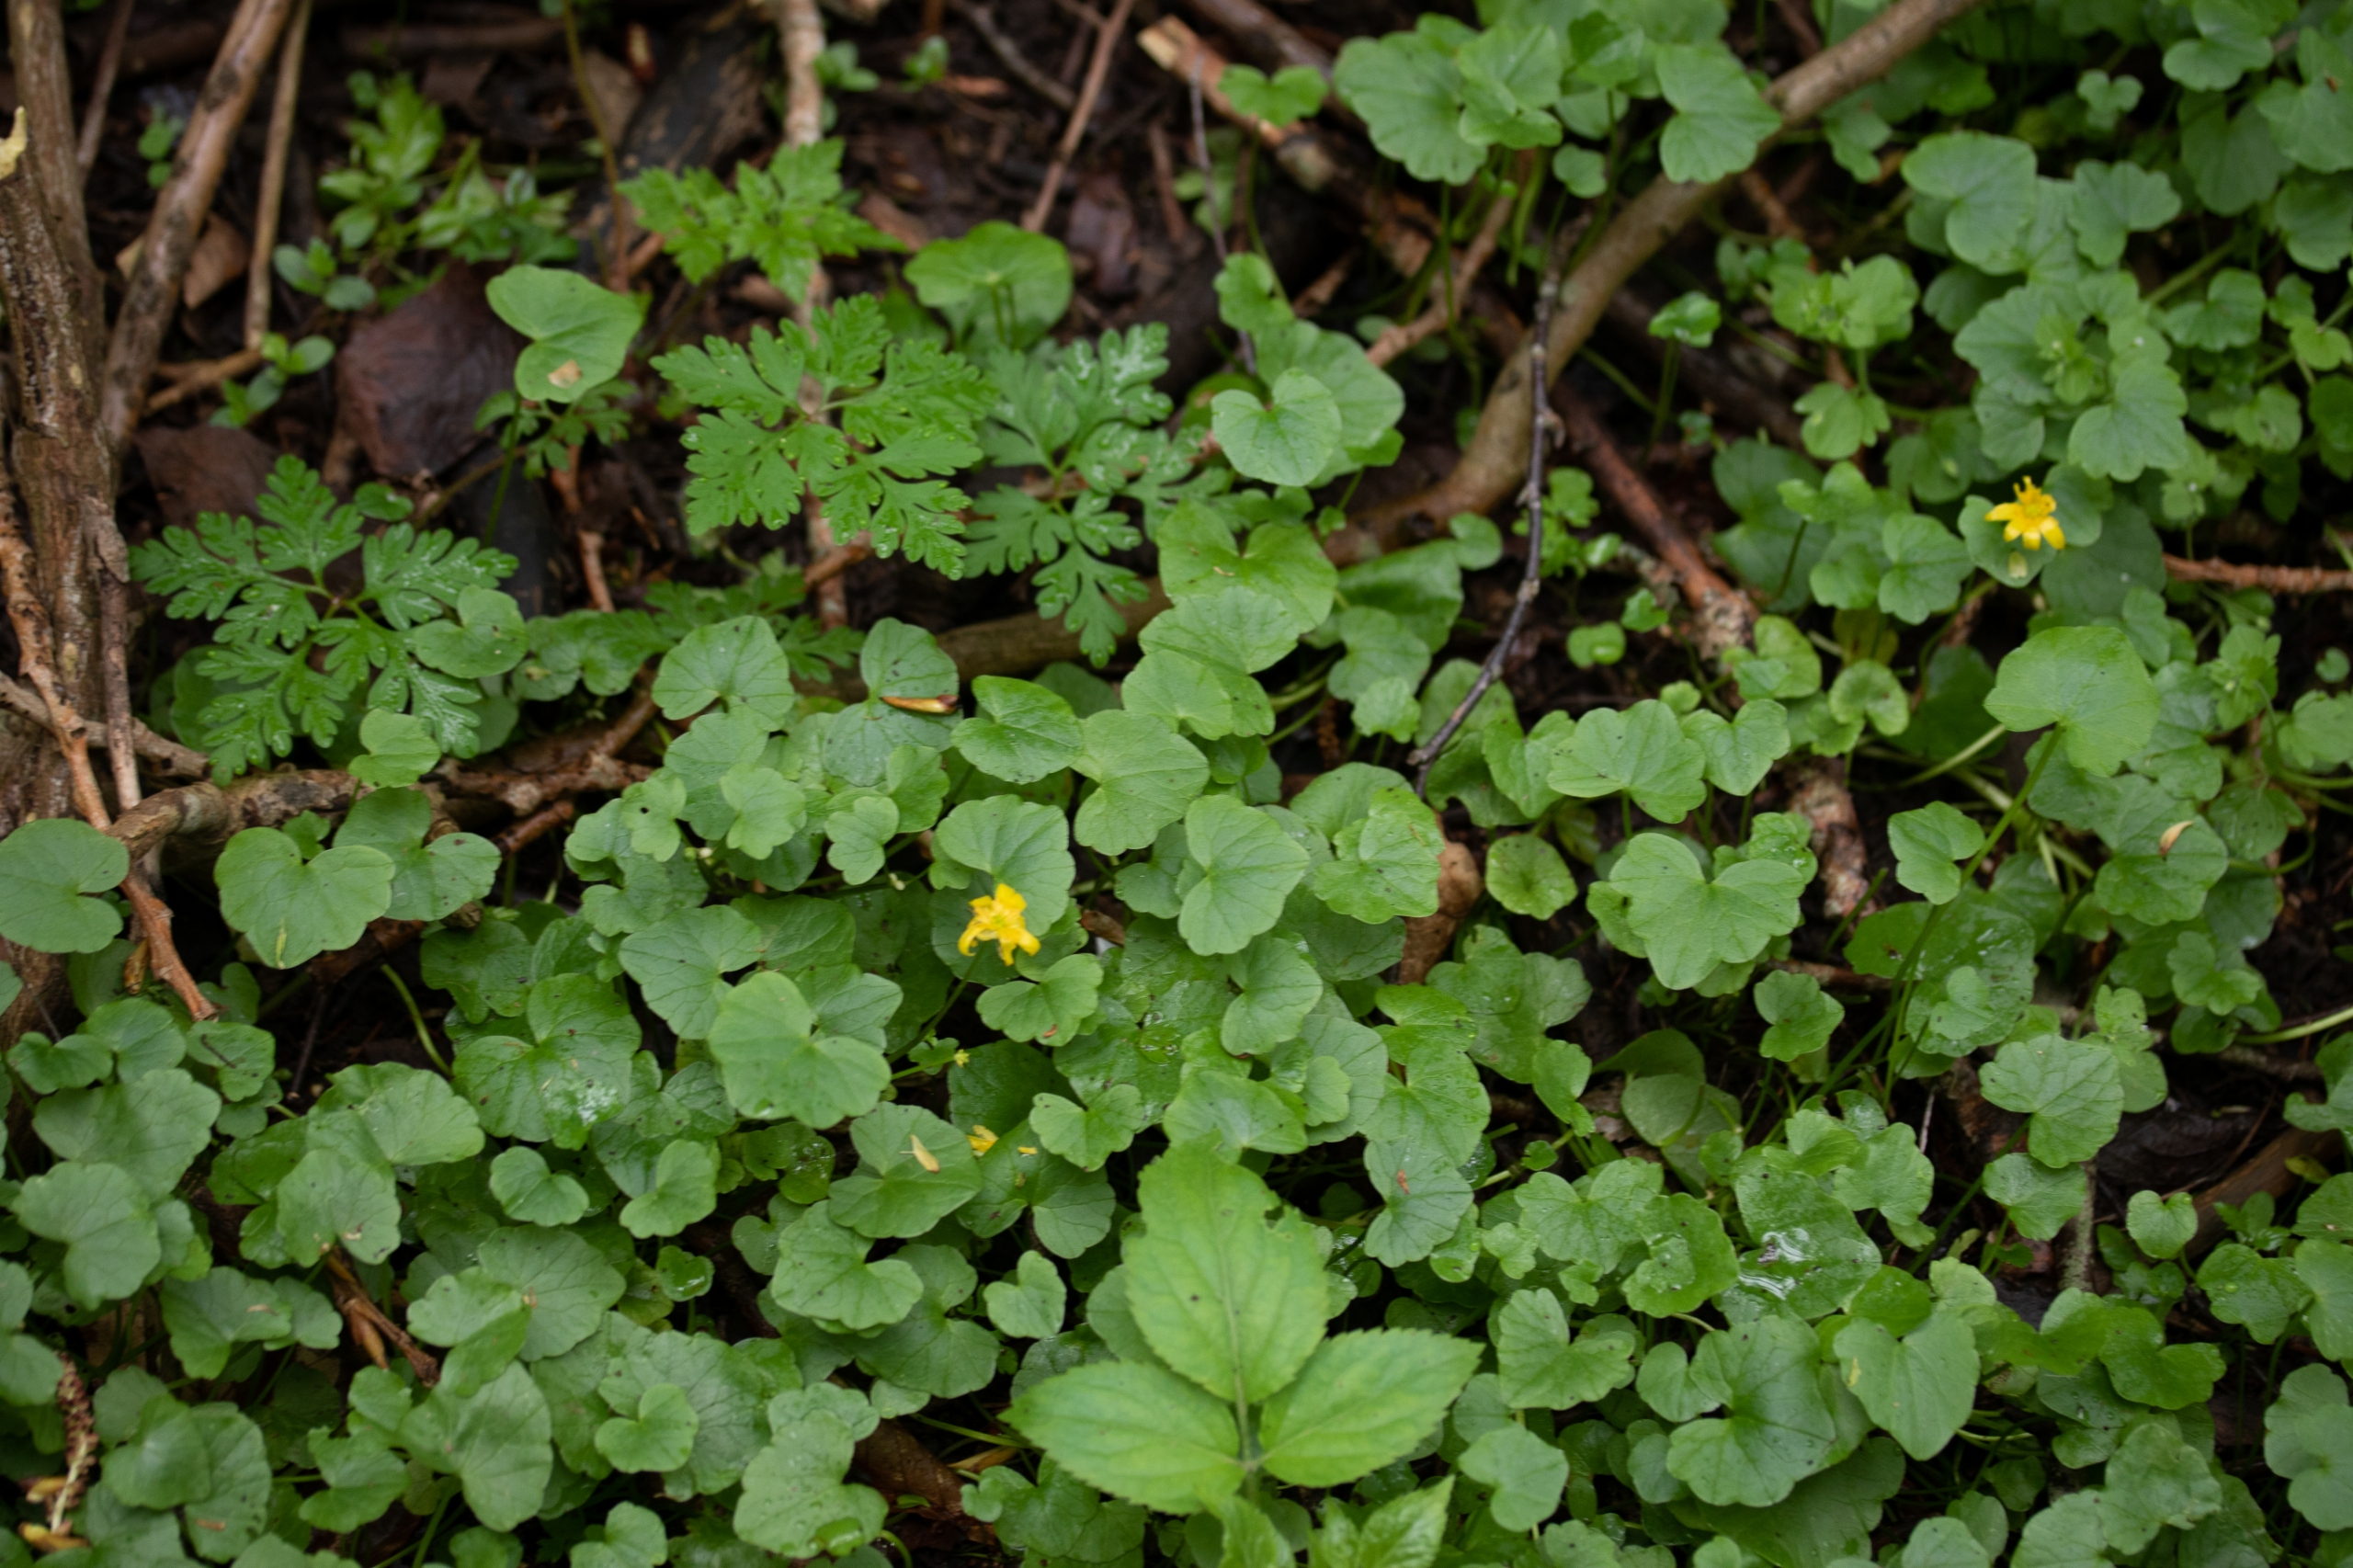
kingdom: Plantae
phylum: Tracheophyta
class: Magnoliopsida
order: Ranunculales
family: Ranunculaceae
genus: Ficaria
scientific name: Ficaria verna
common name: Vorterod
